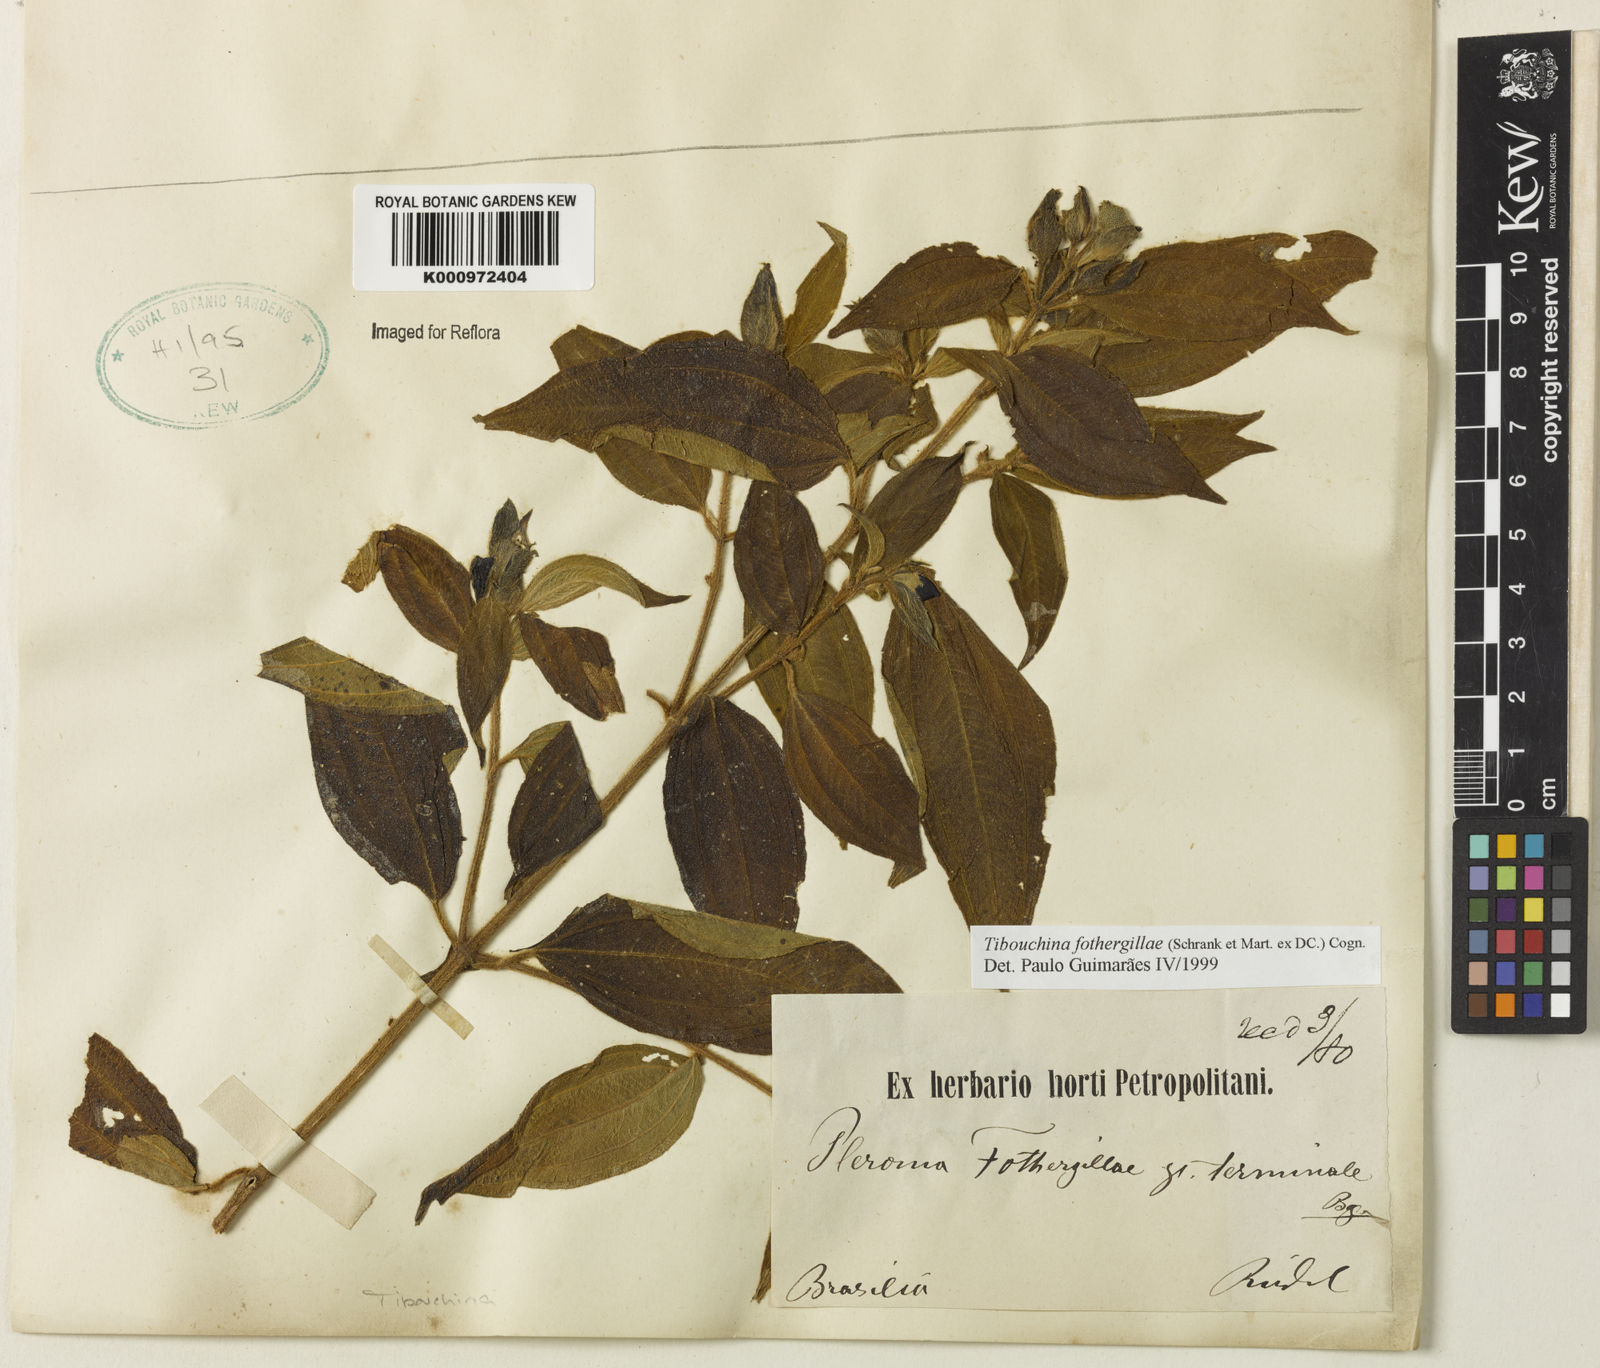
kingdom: Plantae
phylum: Tracheophyta
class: Magnoliopsida
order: Myrtales
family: Melastomataceae
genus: Pleroma
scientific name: Pleroma fothergillae
